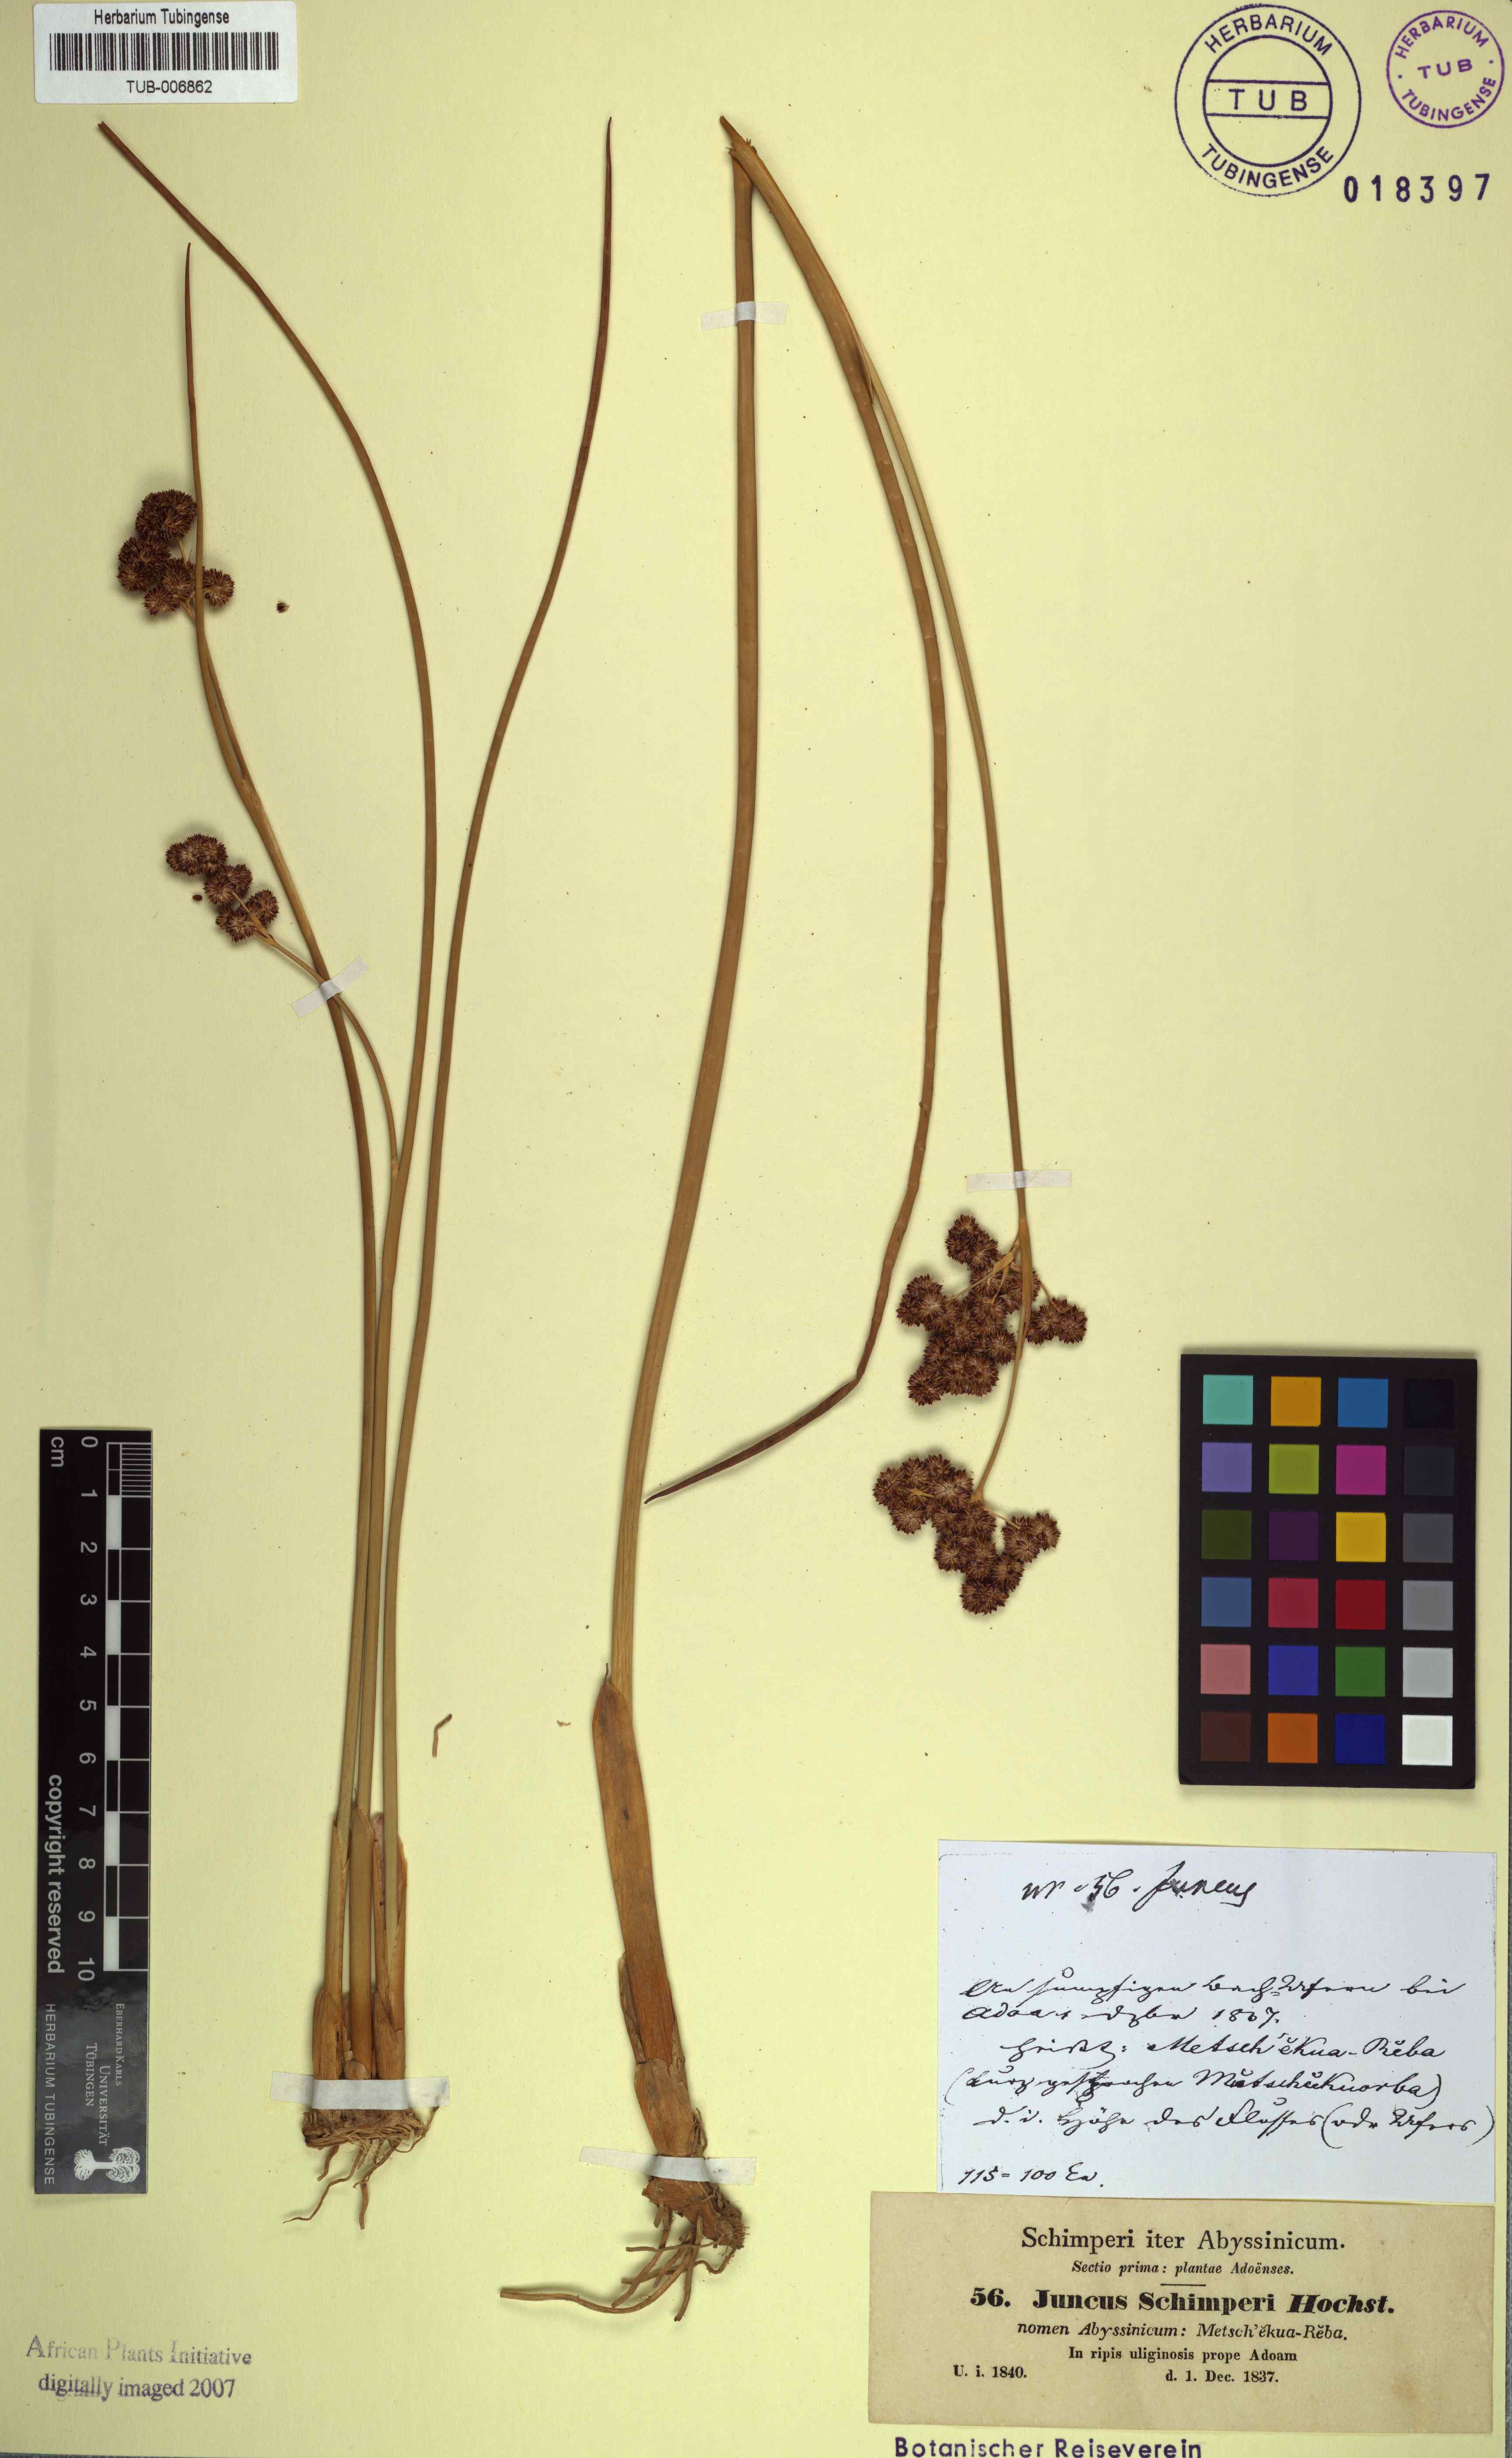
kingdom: Plantae
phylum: Tracheophyta
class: Liliopsida
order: Poales
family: Juncaceae
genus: Juncus
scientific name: Juncus punctorius
